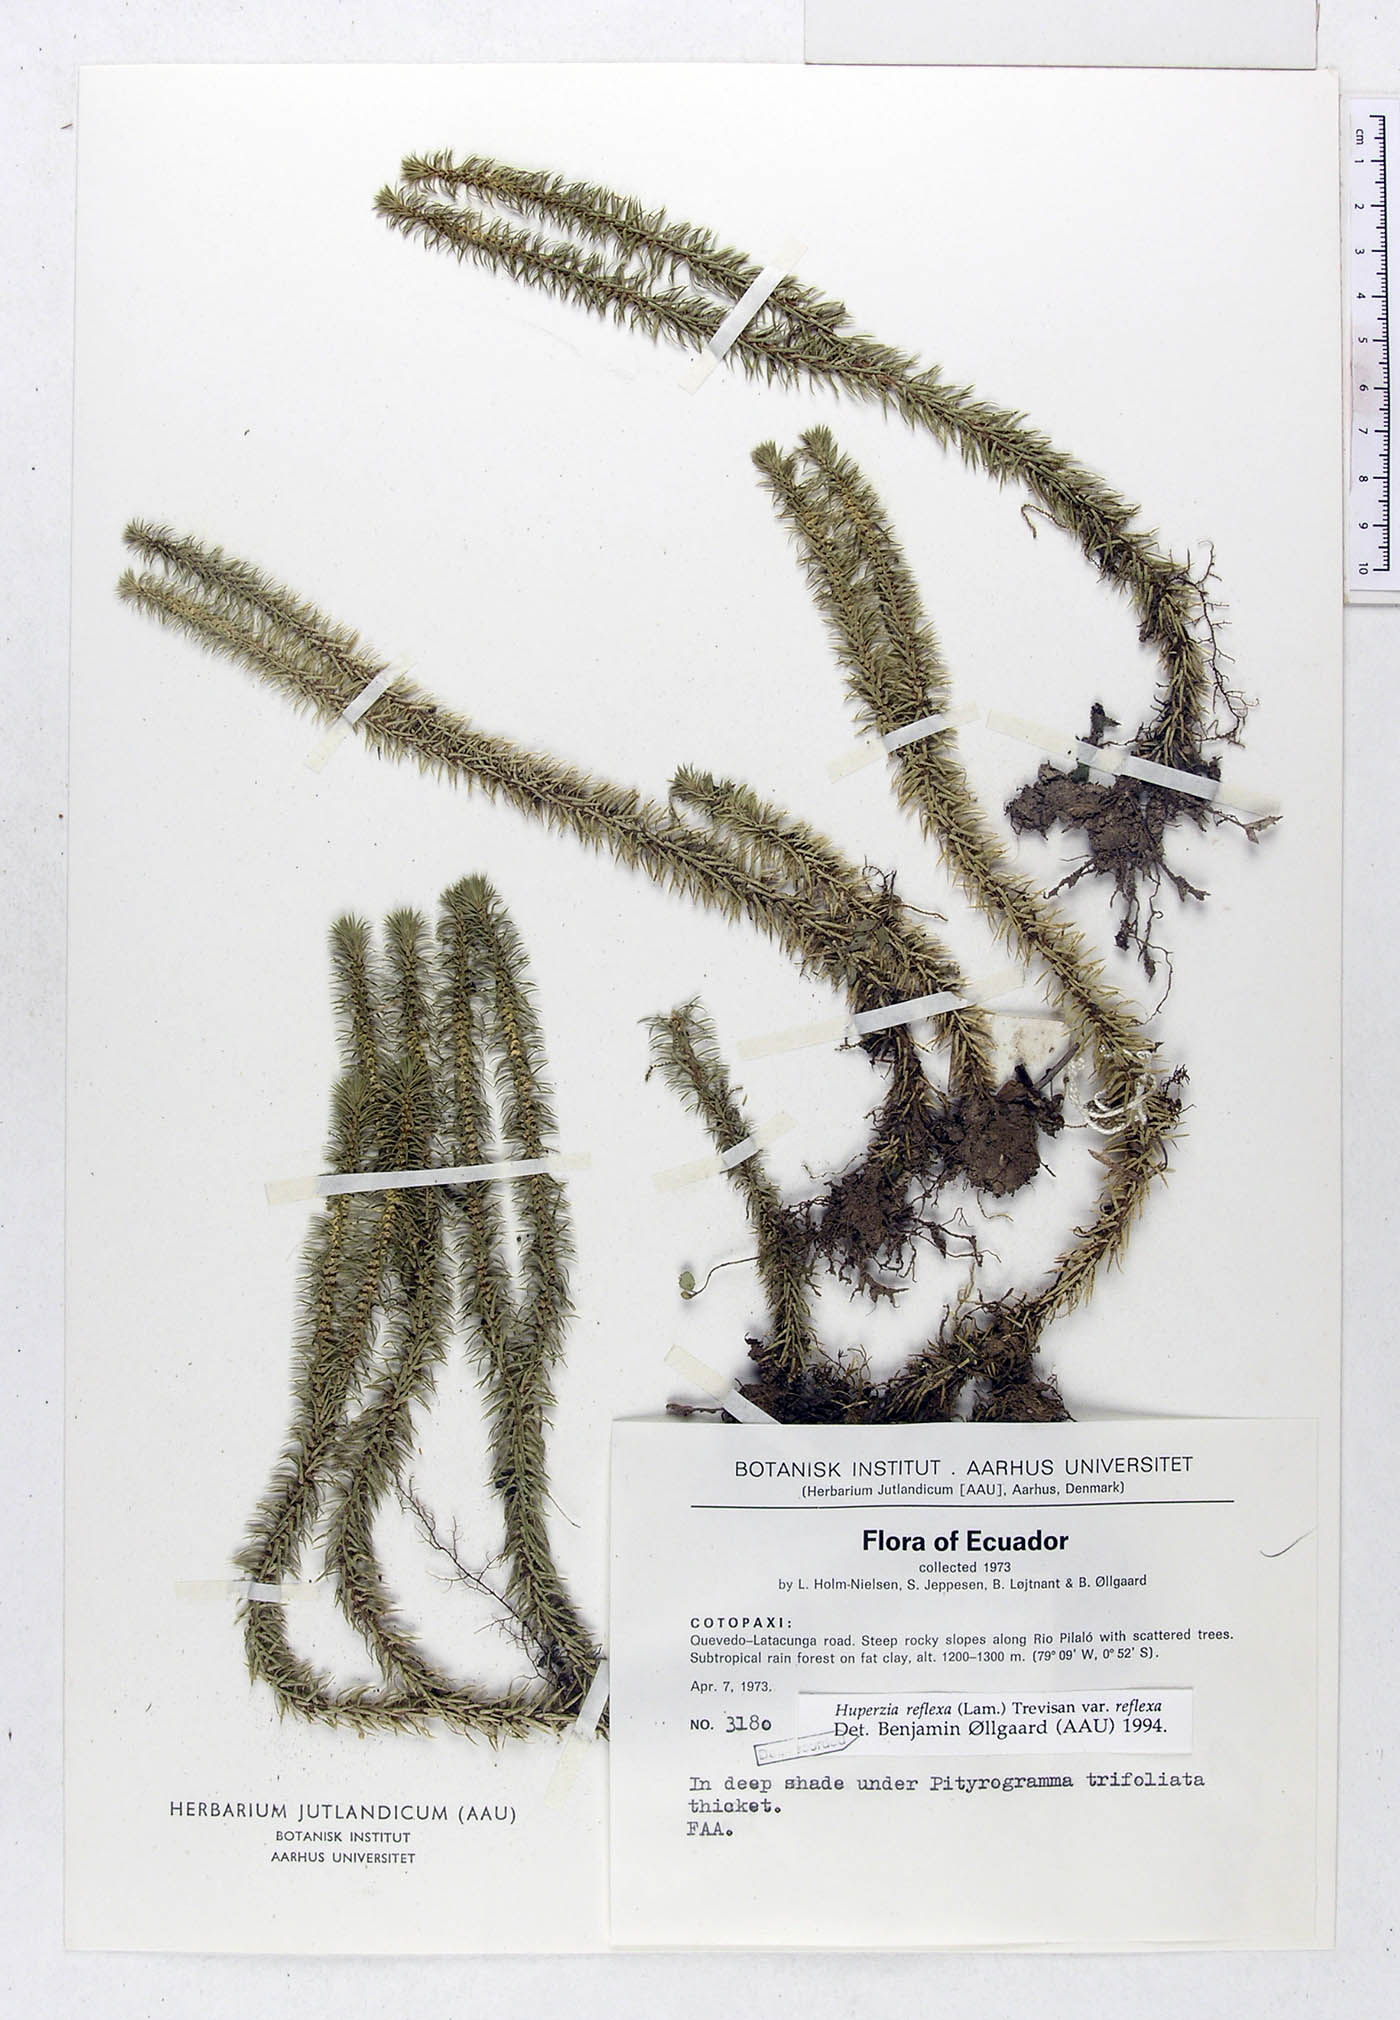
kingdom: Plantae
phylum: Tracheophyta
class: Lycopodiopsida
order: Lycopodiales
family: Lycopodiaceae
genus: Phlegmariurus
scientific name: Phlegmariurus reflexus
